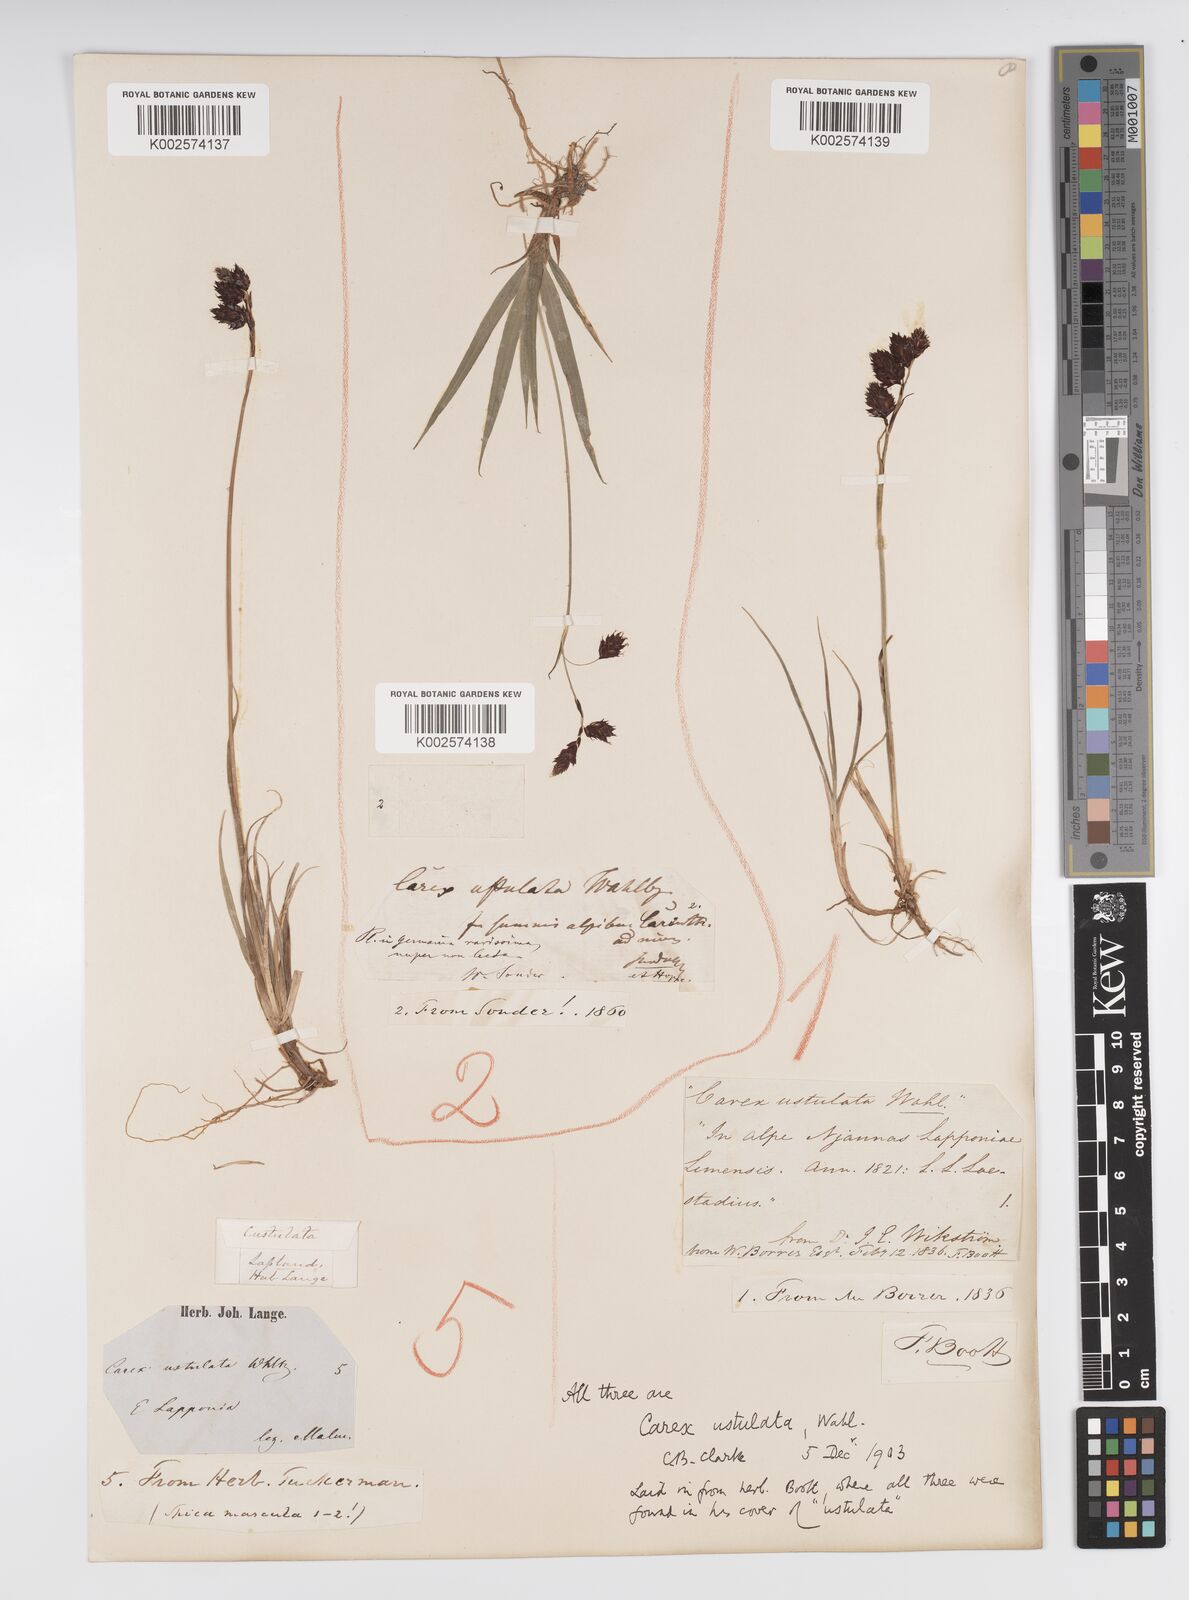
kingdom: Plantae
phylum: Tracheophyta
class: Liliopsida
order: Poales
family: Cyperaceae
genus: Carex
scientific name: Carex atrofusca
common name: Scorched alpine-sedge
